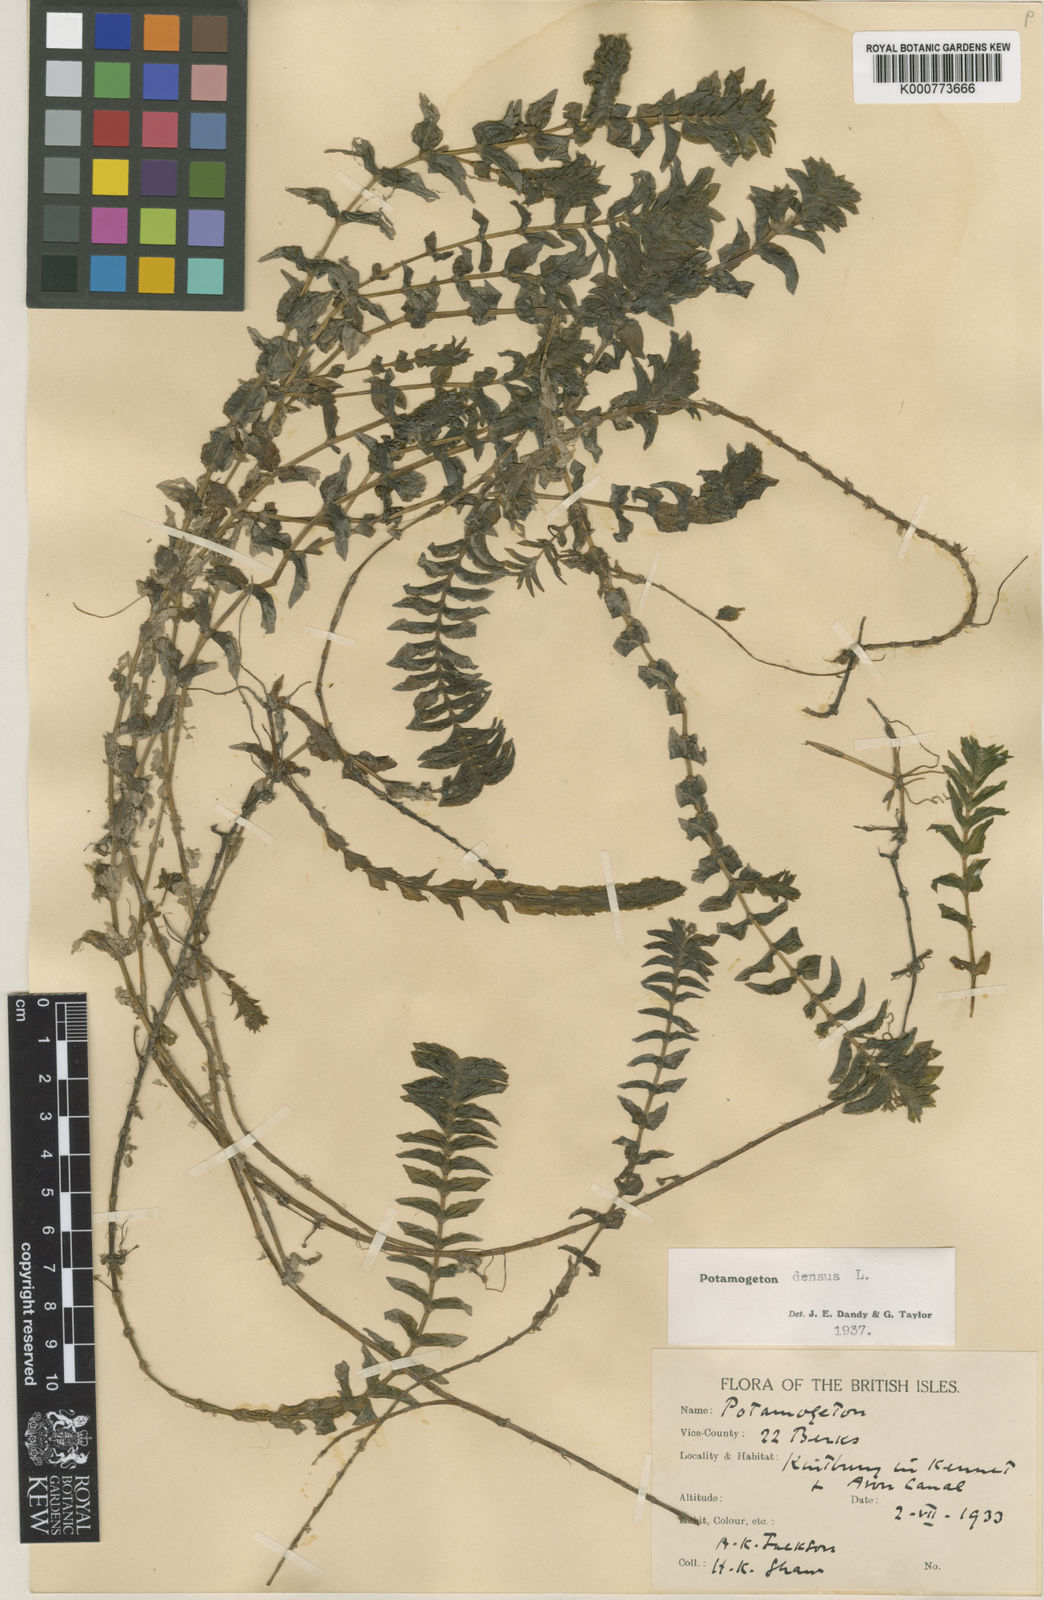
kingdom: Plantae
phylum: Tracheophyta
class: Liliopsida
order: Alismatales
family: Potamogetonaceae
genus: Groenlandia
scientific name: Groenlandia densa
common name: Opposite-leaved pondweed
